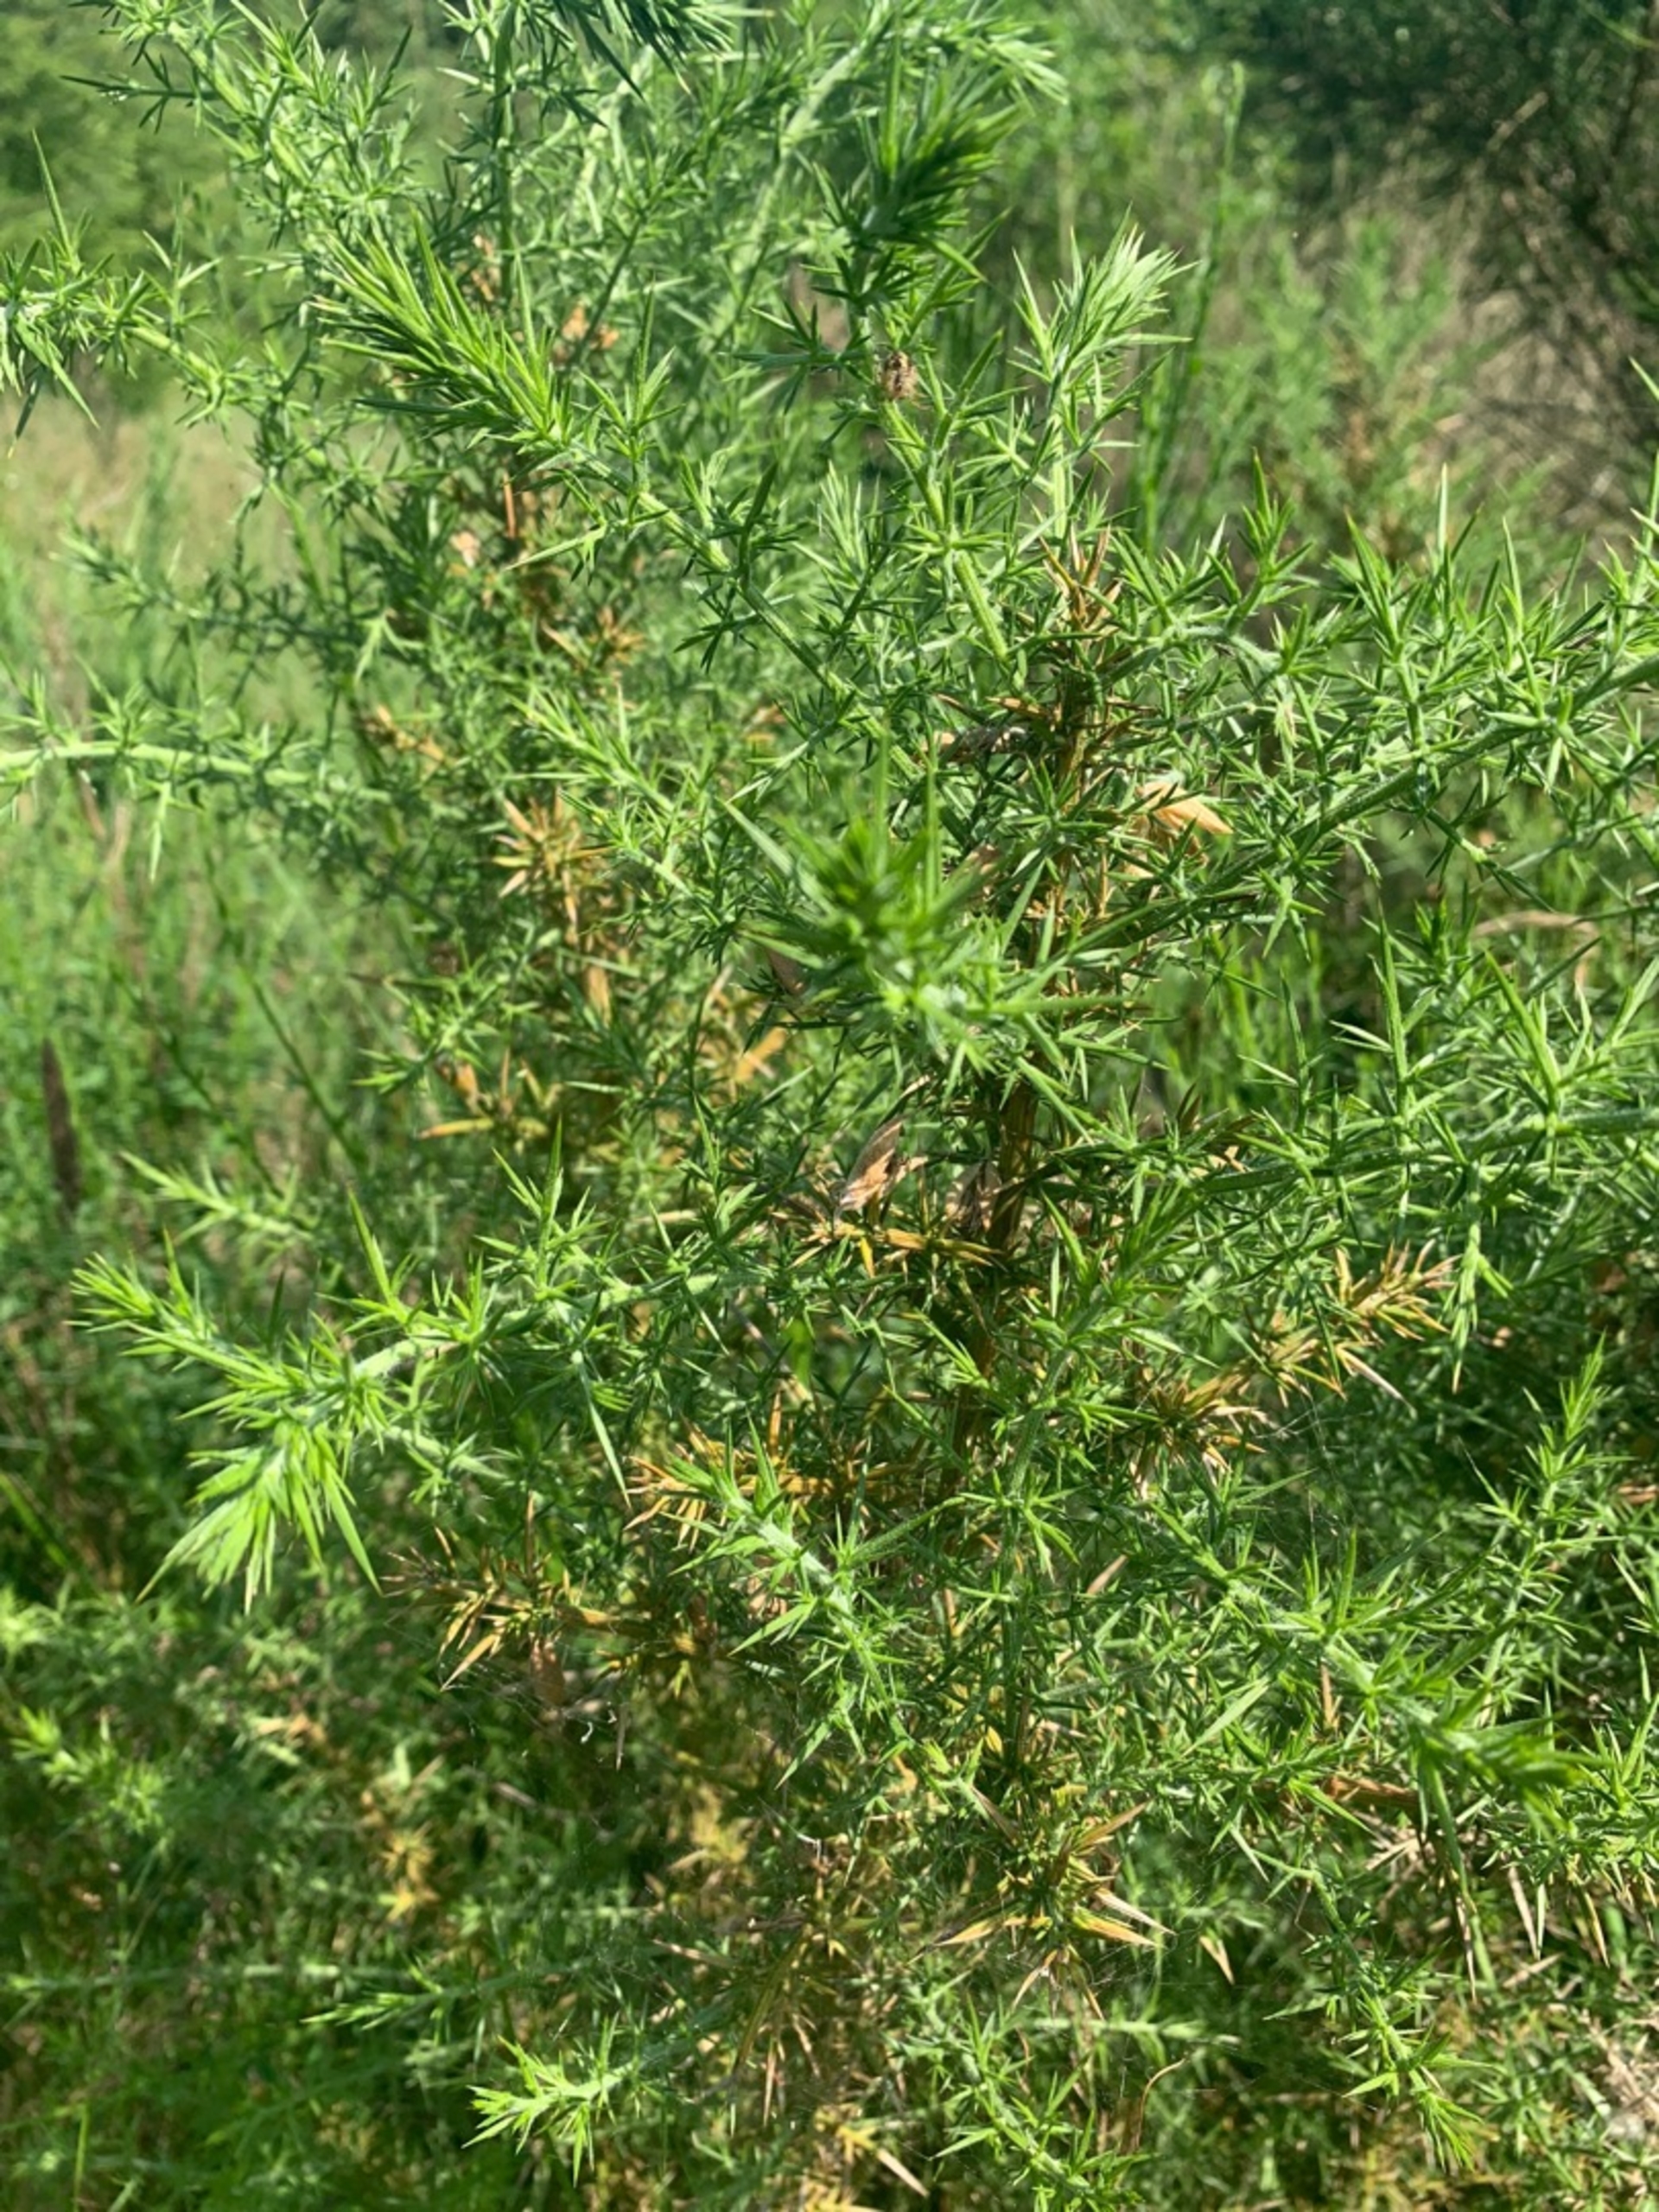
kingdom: Plantae
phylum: Tracheophyta
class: Pinopsida
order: Pinales
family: Cupressaceae
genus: Juniperus
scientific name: Juniperus communis
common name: Almindelig ene
